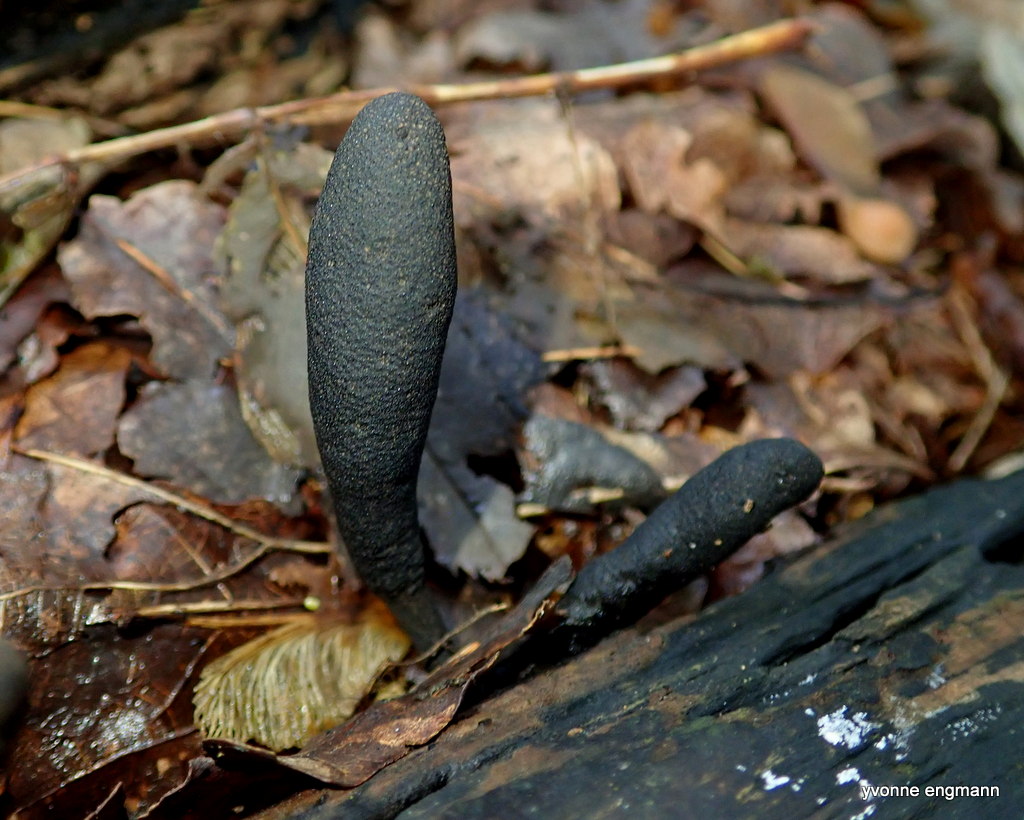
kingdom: Fungi
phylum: Ascomycota
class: Sordariomycetes
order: Xylariales
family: Xylariaceae
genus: Xylaria
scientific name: Xylaria longipes
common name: slank stødsvamp
